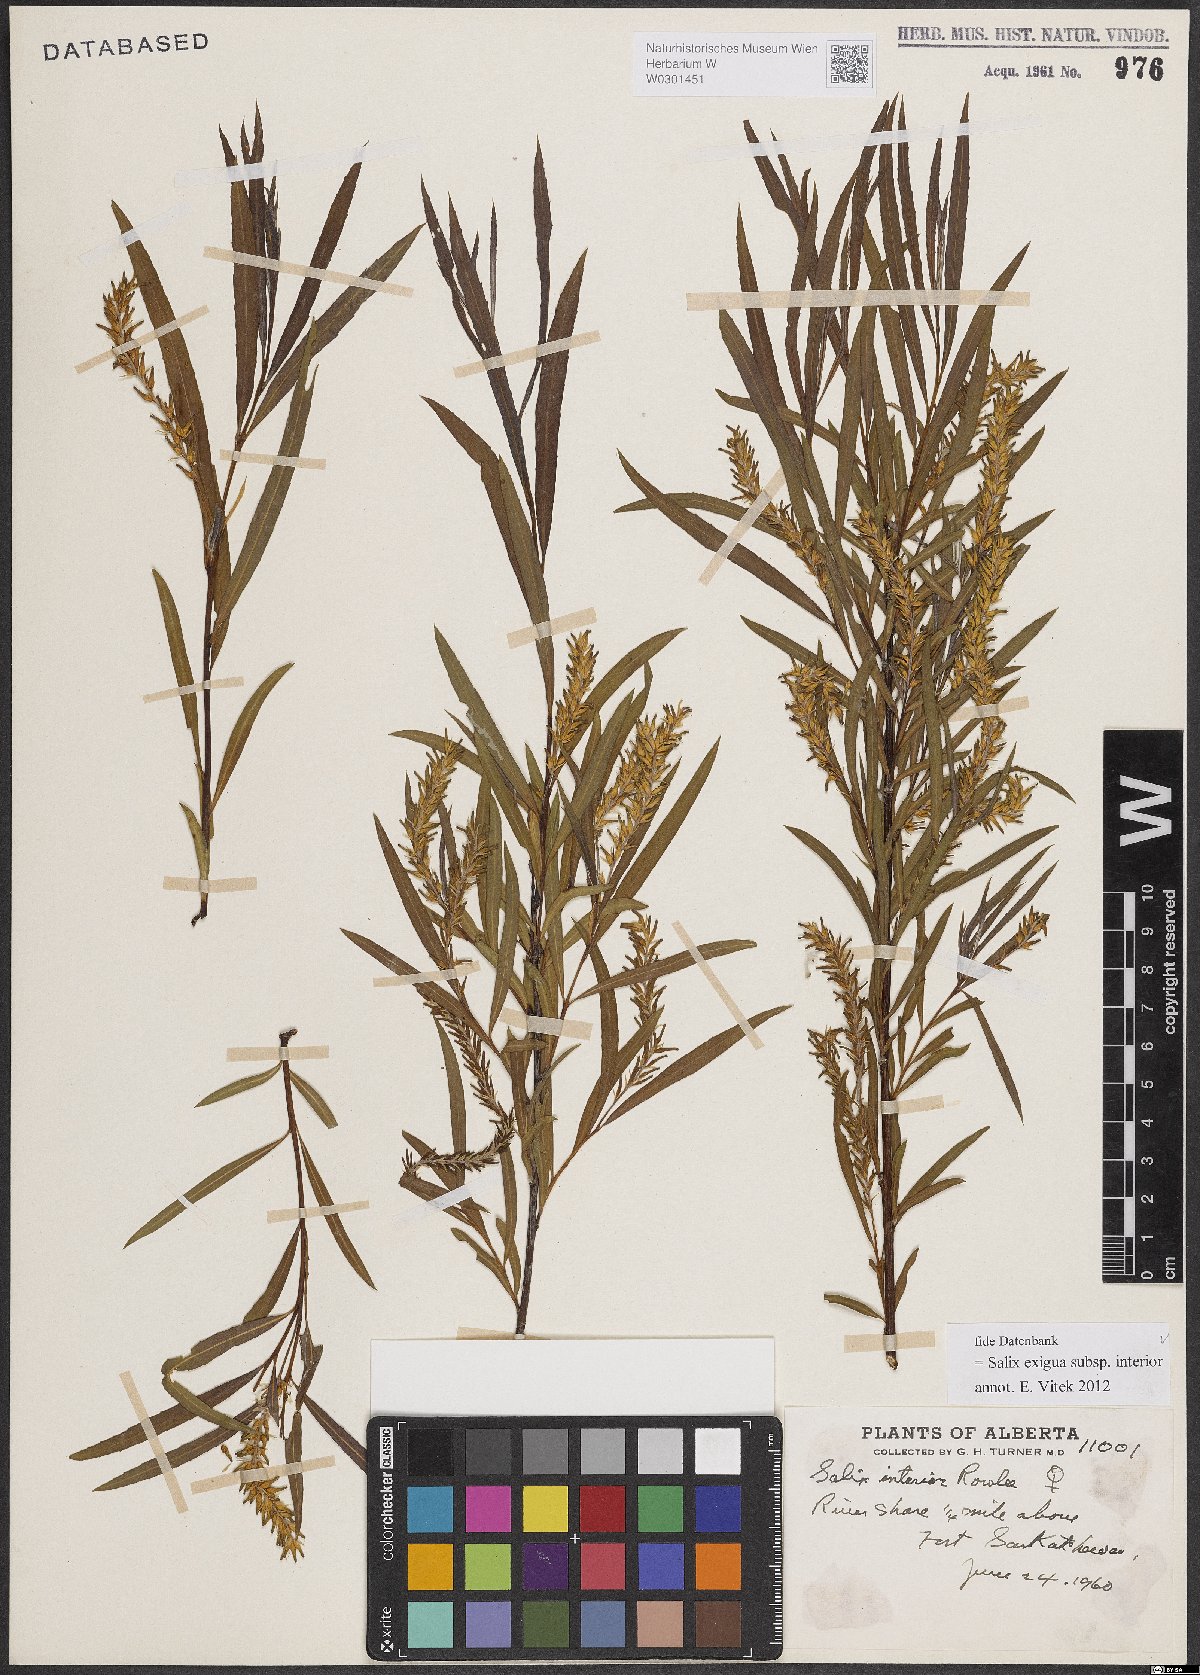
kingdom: Plantae
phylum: Tracheophyta
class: Magnoliopsida
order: Malpighiales
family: Salicaceae
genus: Salix
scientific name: Salix interior
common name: Sandbar willow
